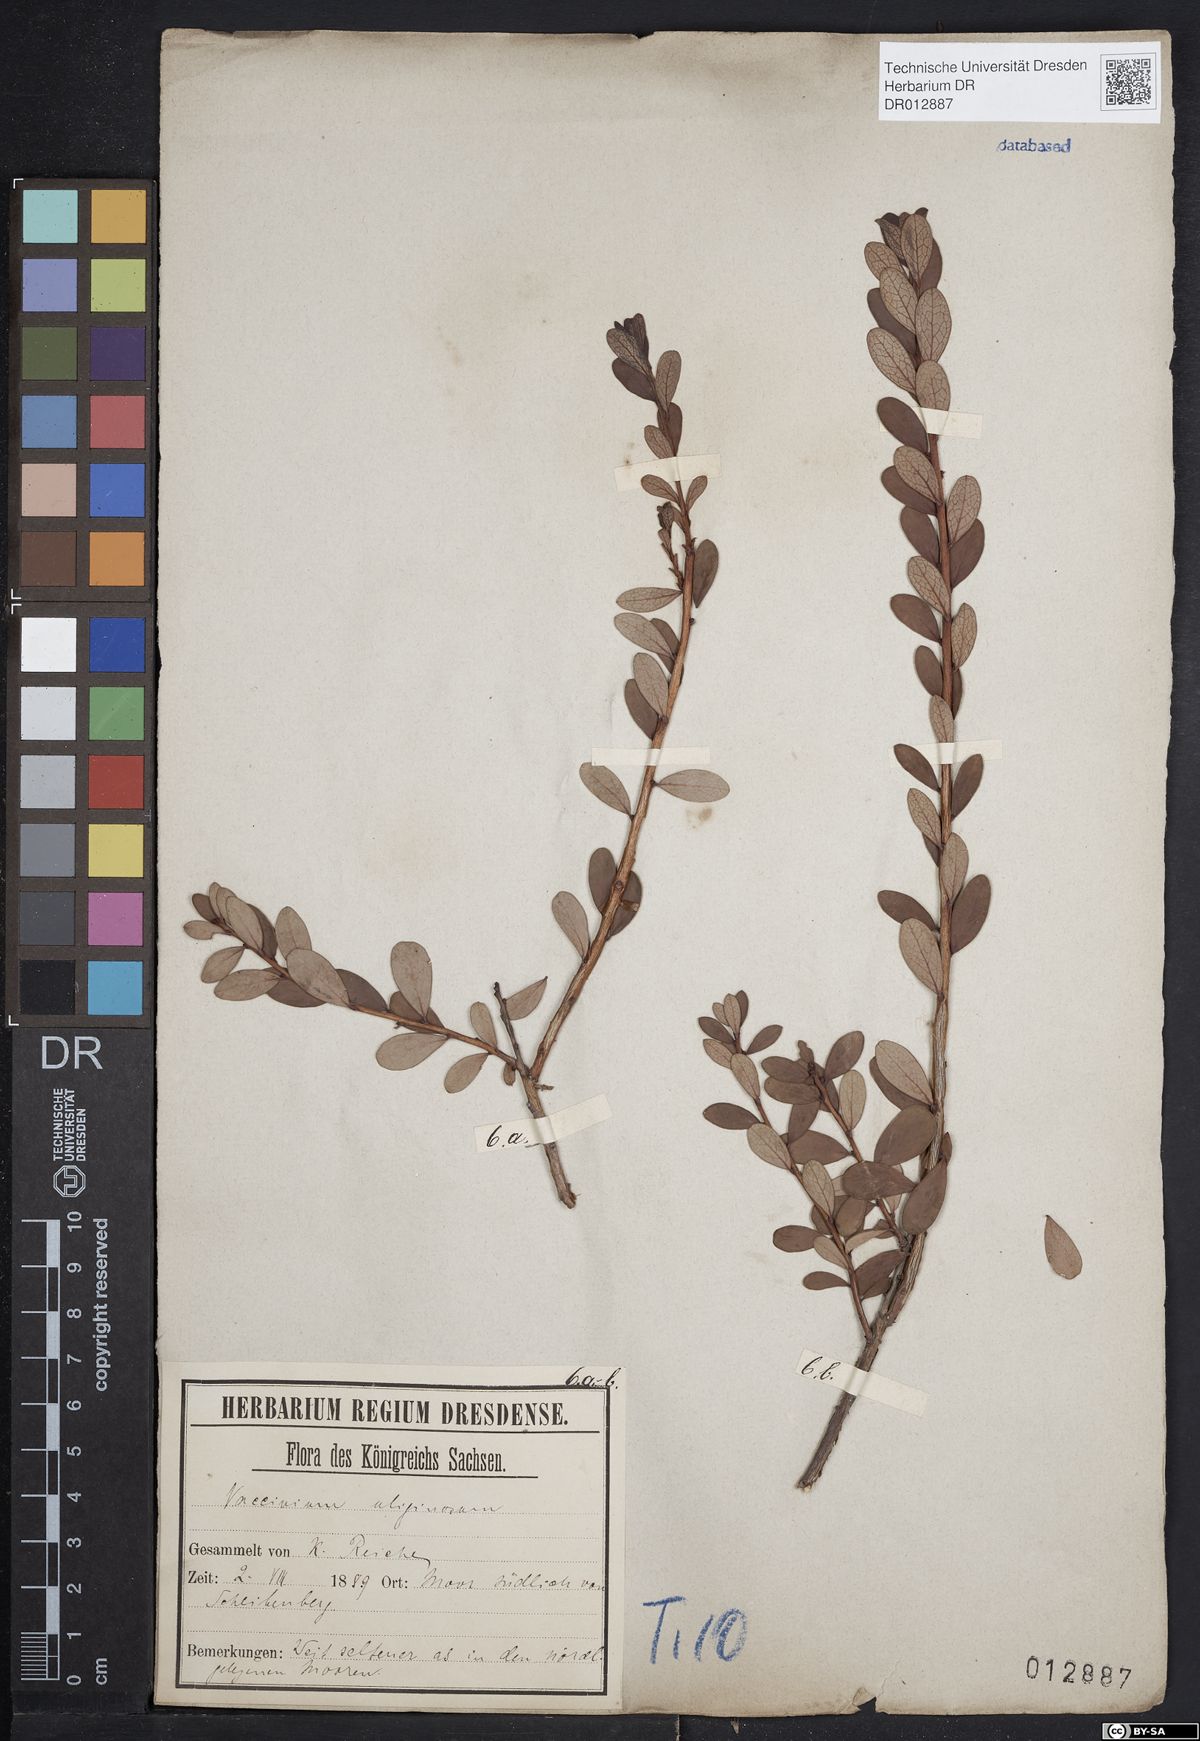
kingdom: Plantae
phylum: Tracheophyta
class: Magnoliopsida
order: Ericales
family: Ericaceae
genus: Vaccinium
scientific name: Vaccinium uliginosum
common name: Bog bilberry
